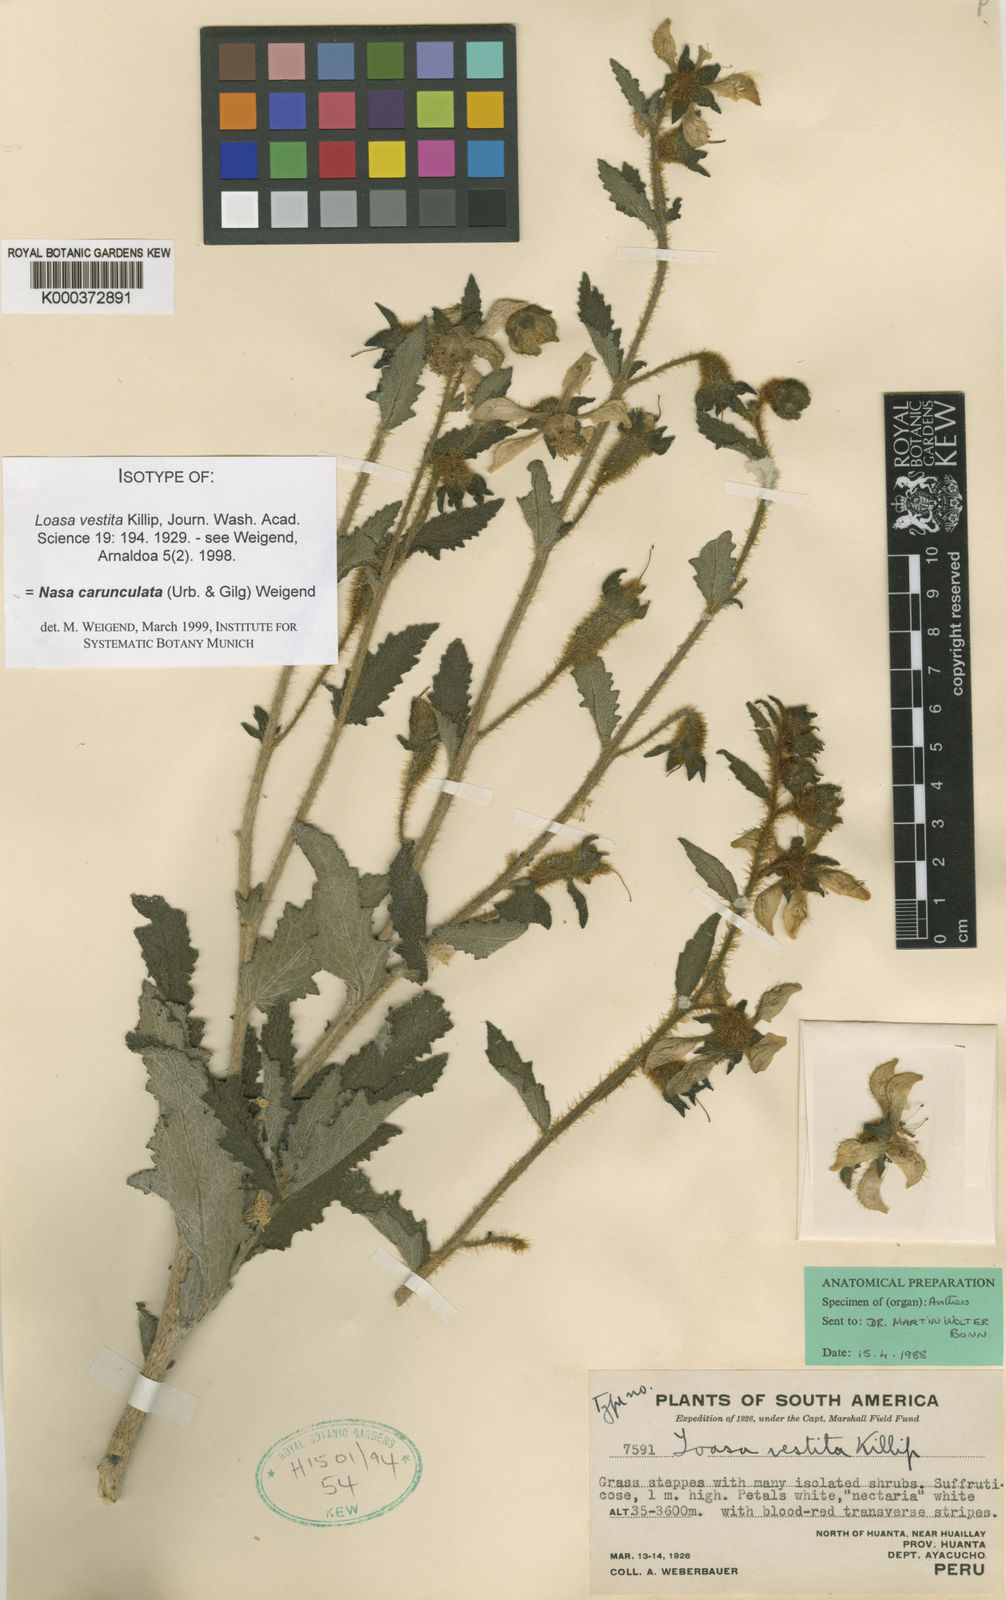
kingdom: Plantae
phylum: Tracheophyta
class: Magnoliopsida
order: Cornales
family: Loasaceae
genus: Nasa
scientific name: Nasa carunculata
